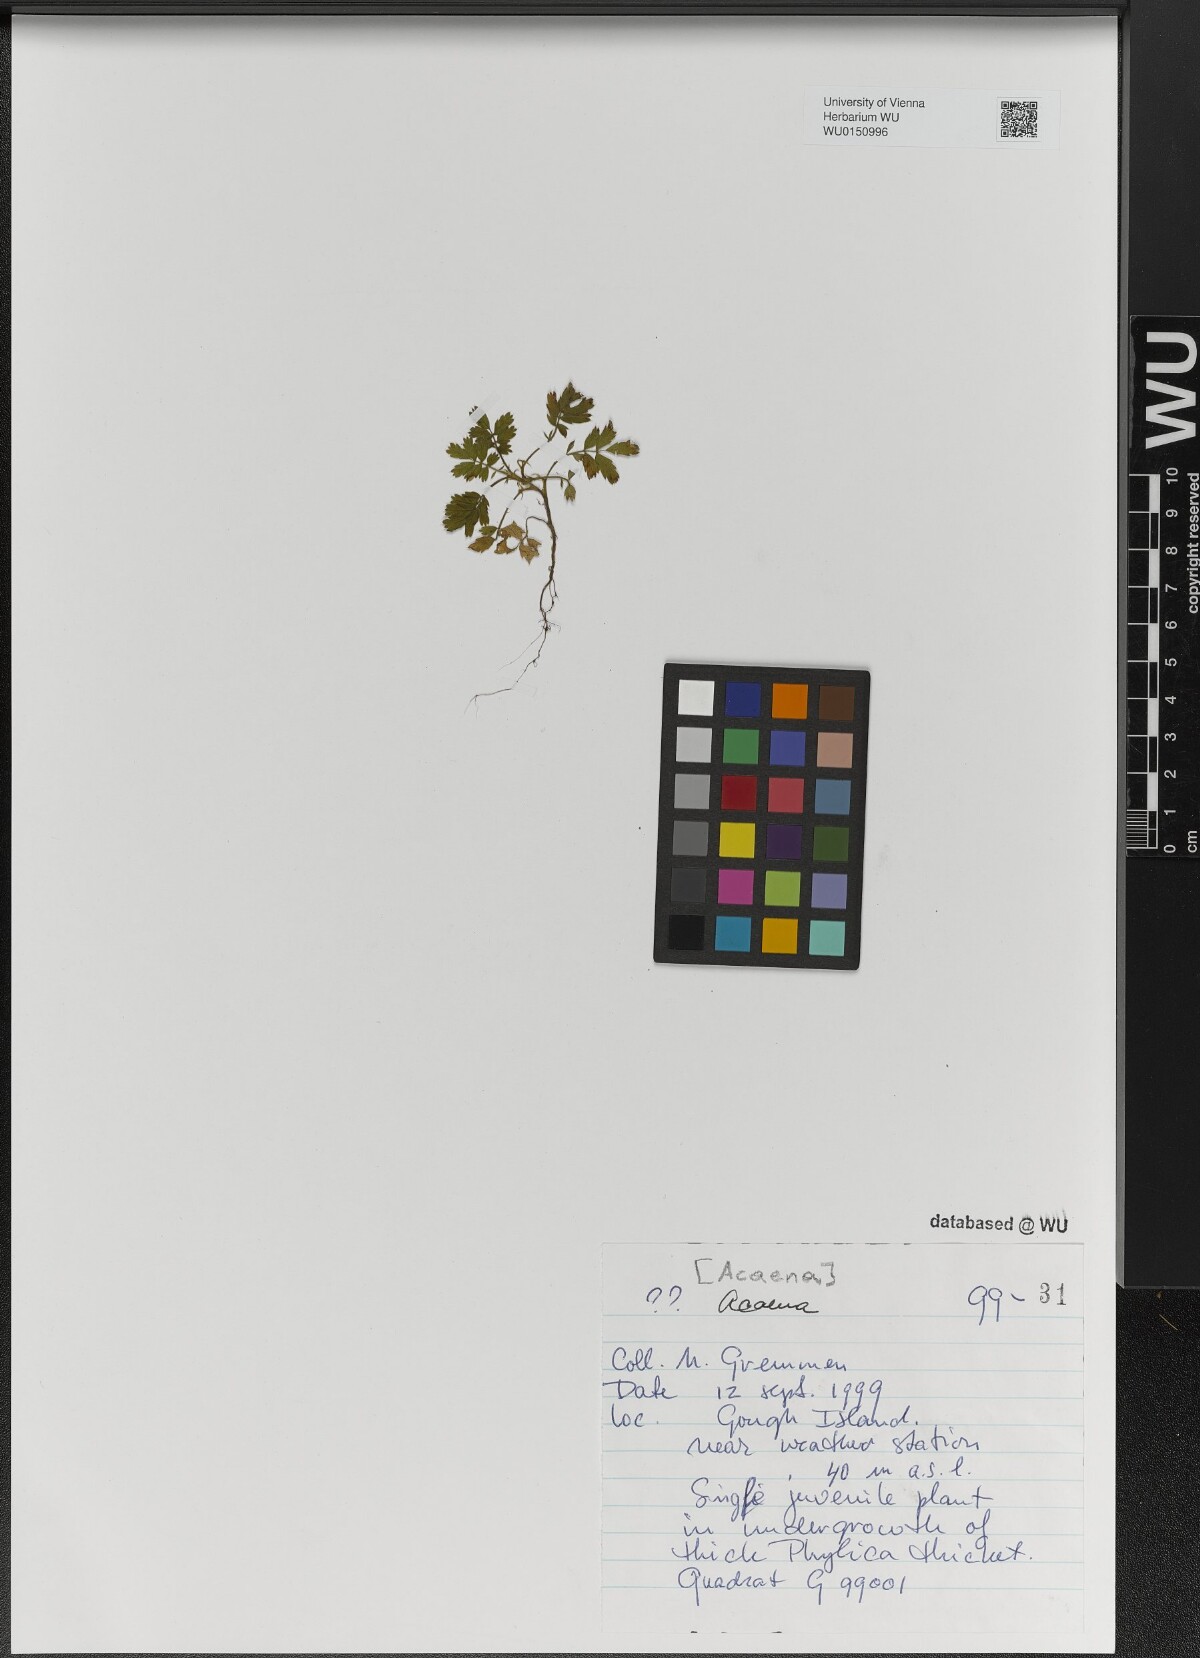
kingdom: Plantae
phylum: Tracheophyta
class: Magnoliopsida
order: Rosales
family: Rosaceae
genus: Acaena
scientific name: Acaena
